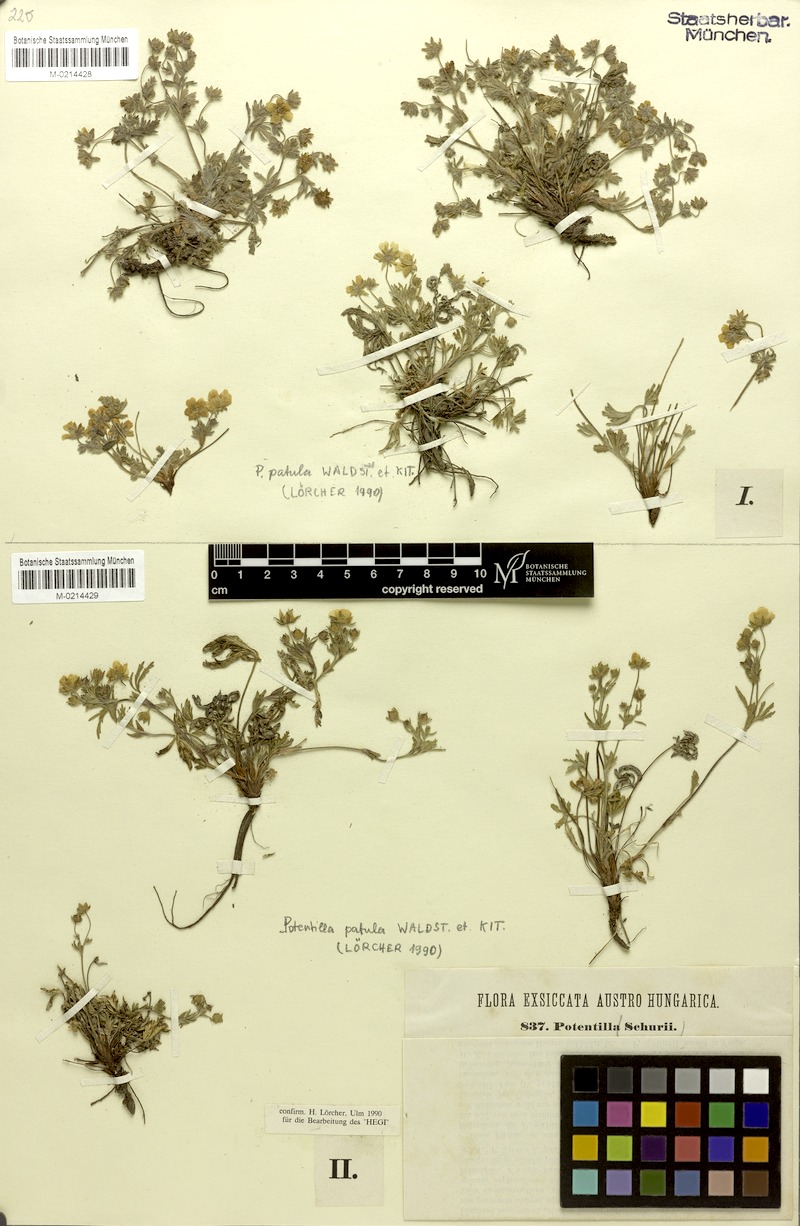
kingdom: Plantae
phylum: Tracheophyta
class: Magnoliopsida
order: Rosales
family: Rosaceae
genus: Potentilla
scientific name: Potentilla patula
